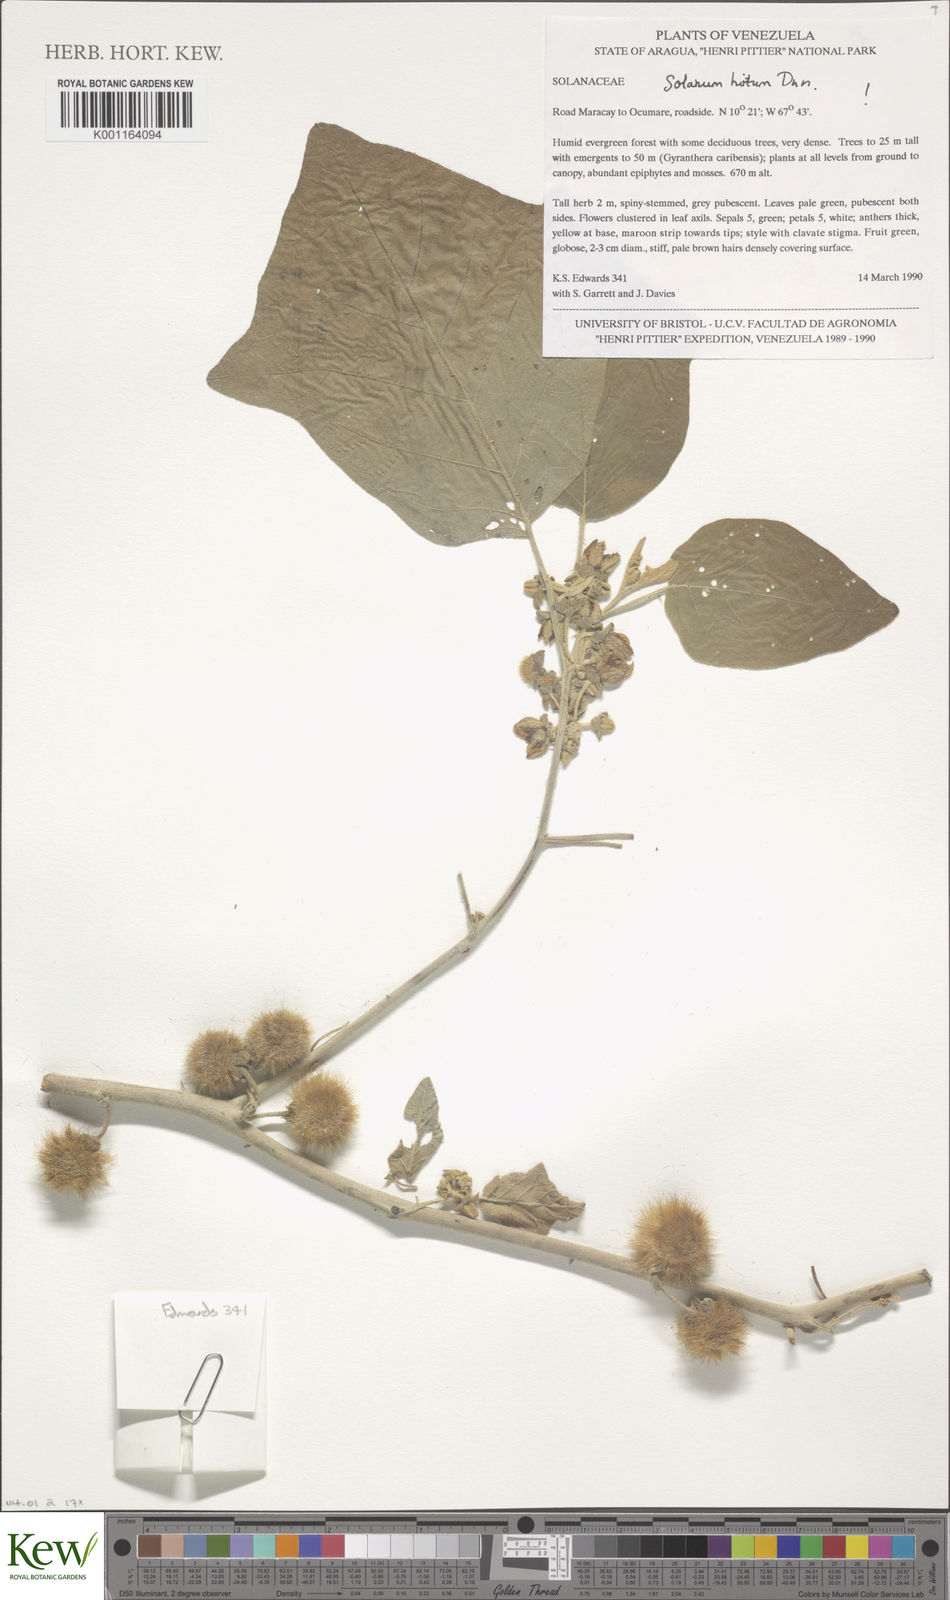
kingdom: Plantae
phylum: Tracheophyta
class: Magnoliopsida
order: Solanales
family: Solanaceae
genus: Solanum
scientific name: Solanum hirtum
